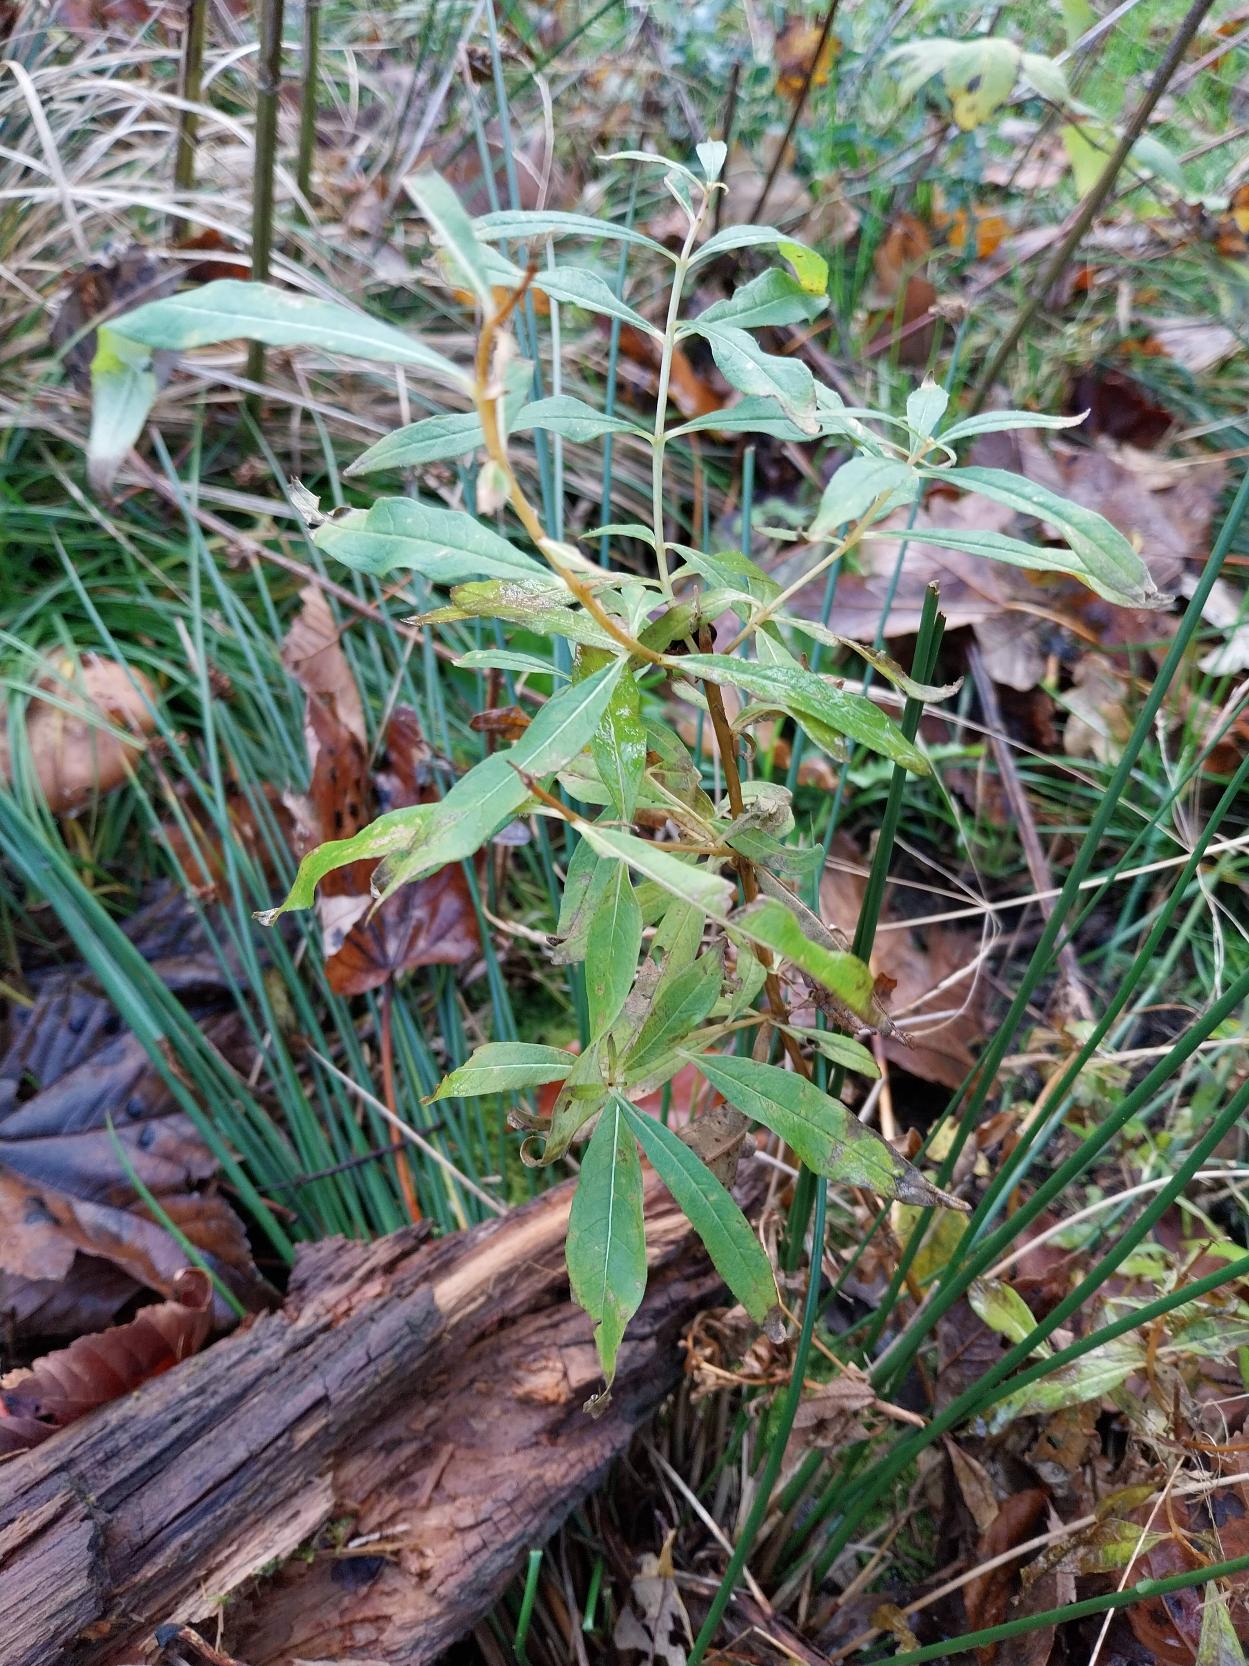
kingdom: Plantae
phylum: Tracheophyta
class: Magnoliopsida
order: Myrtales
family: Onagraceae
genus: Chamaenerion
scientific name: Chamaenerion angustifolium
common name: Gederams
